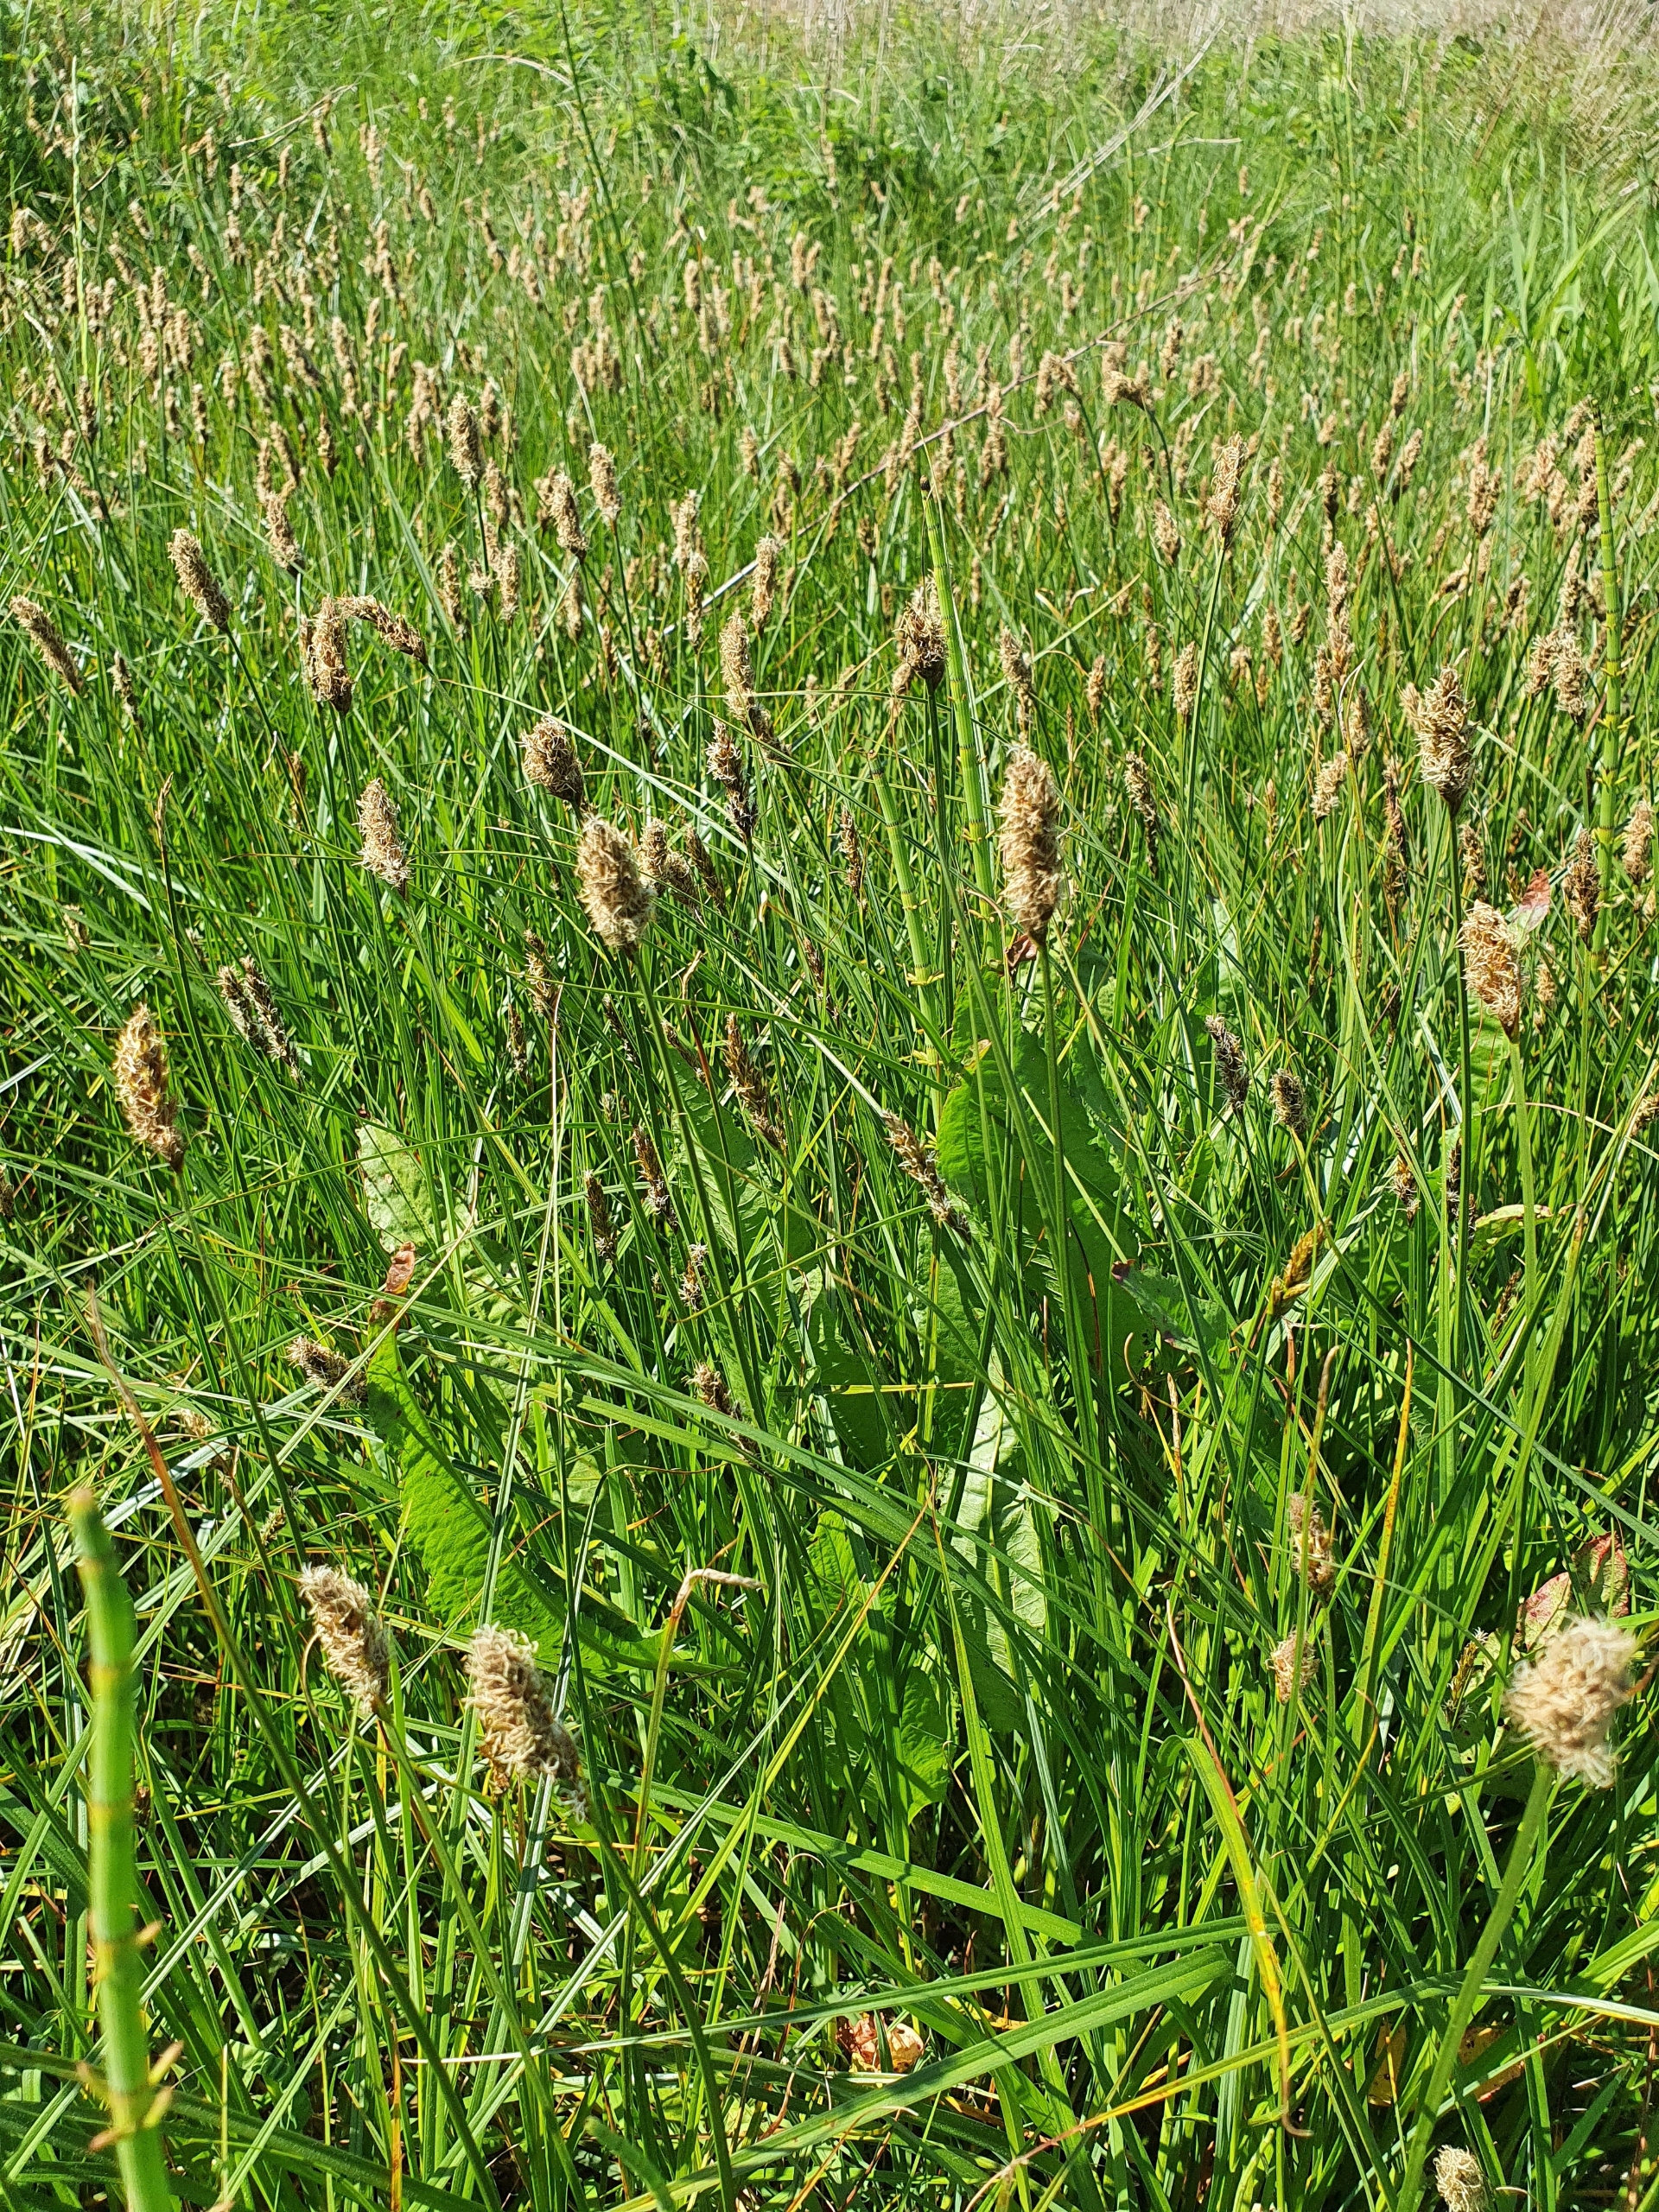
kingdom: Plantae
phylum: Tracheophyta
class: Liliopsida
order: Poales
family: Cyperaceae
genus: Carex
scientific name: Carex disticha
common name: Toradet star
